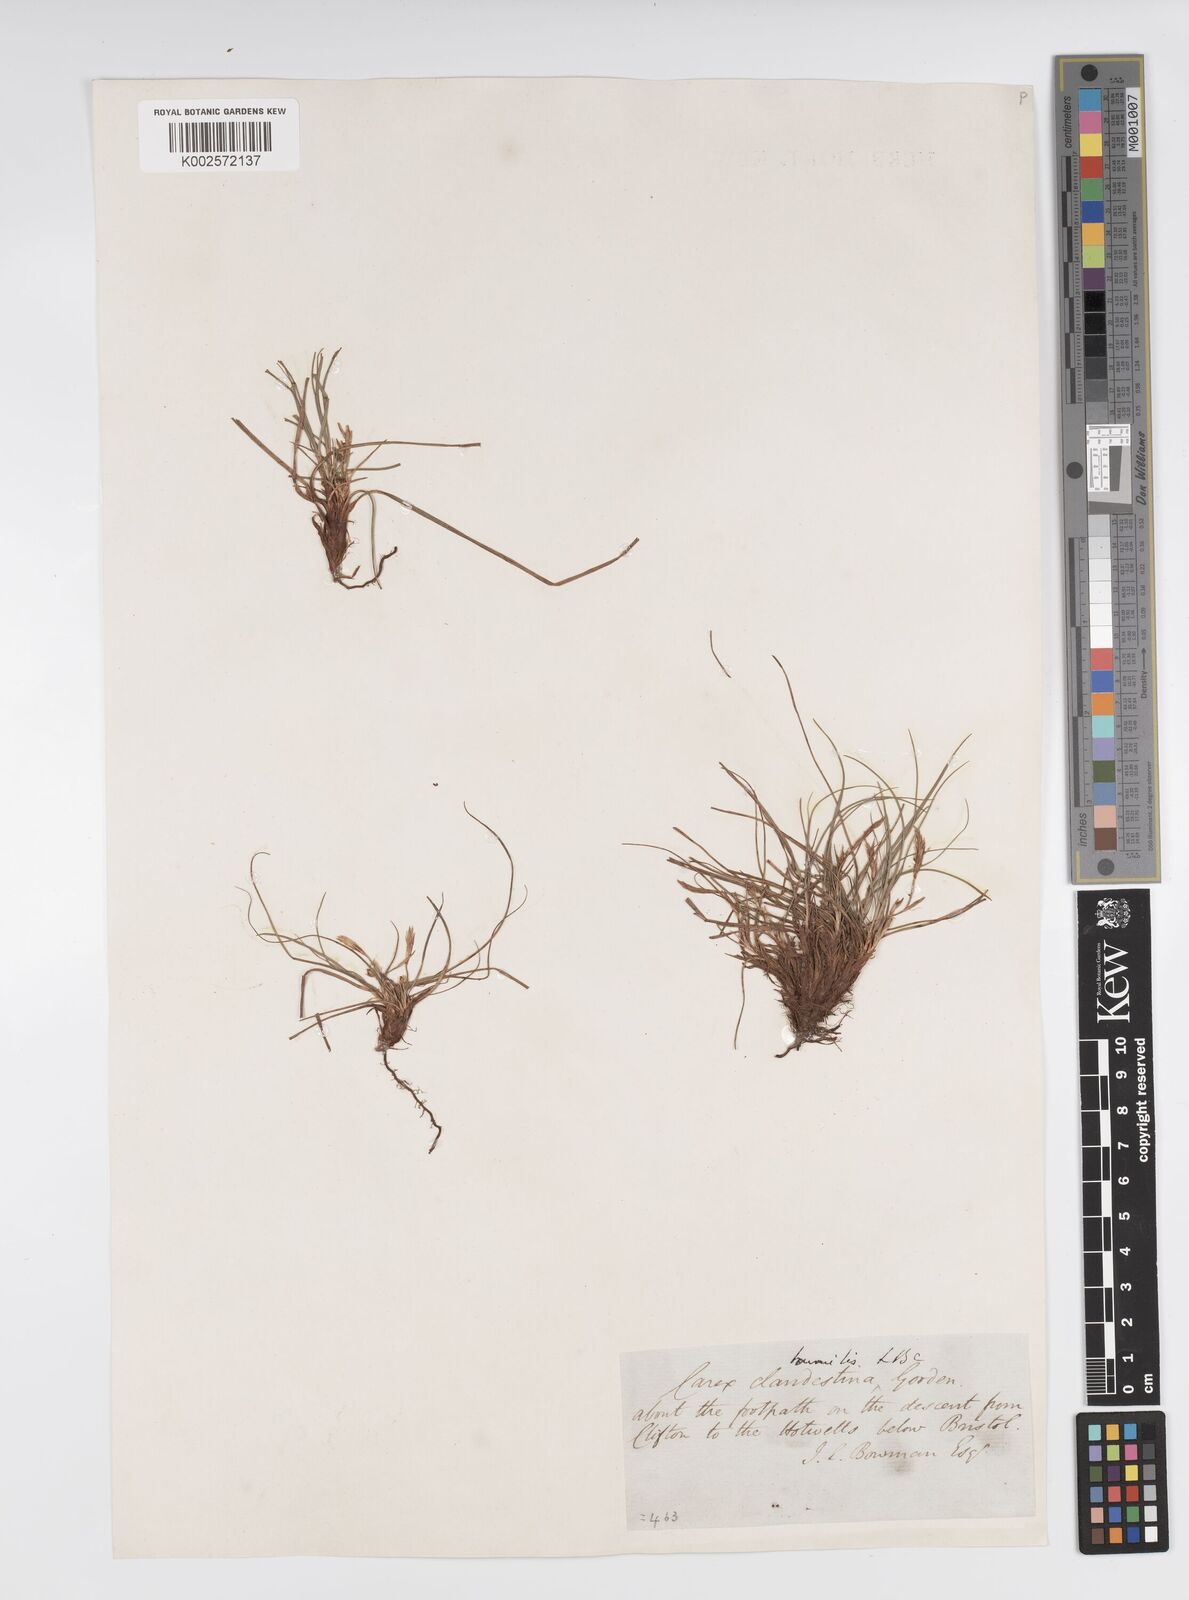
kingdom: Plantae
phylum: Tracheophyta
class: Liliopsida
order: Poales
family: Cyperaceae
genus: Carex
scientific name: Carex humilis
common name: Dwarf sedge
